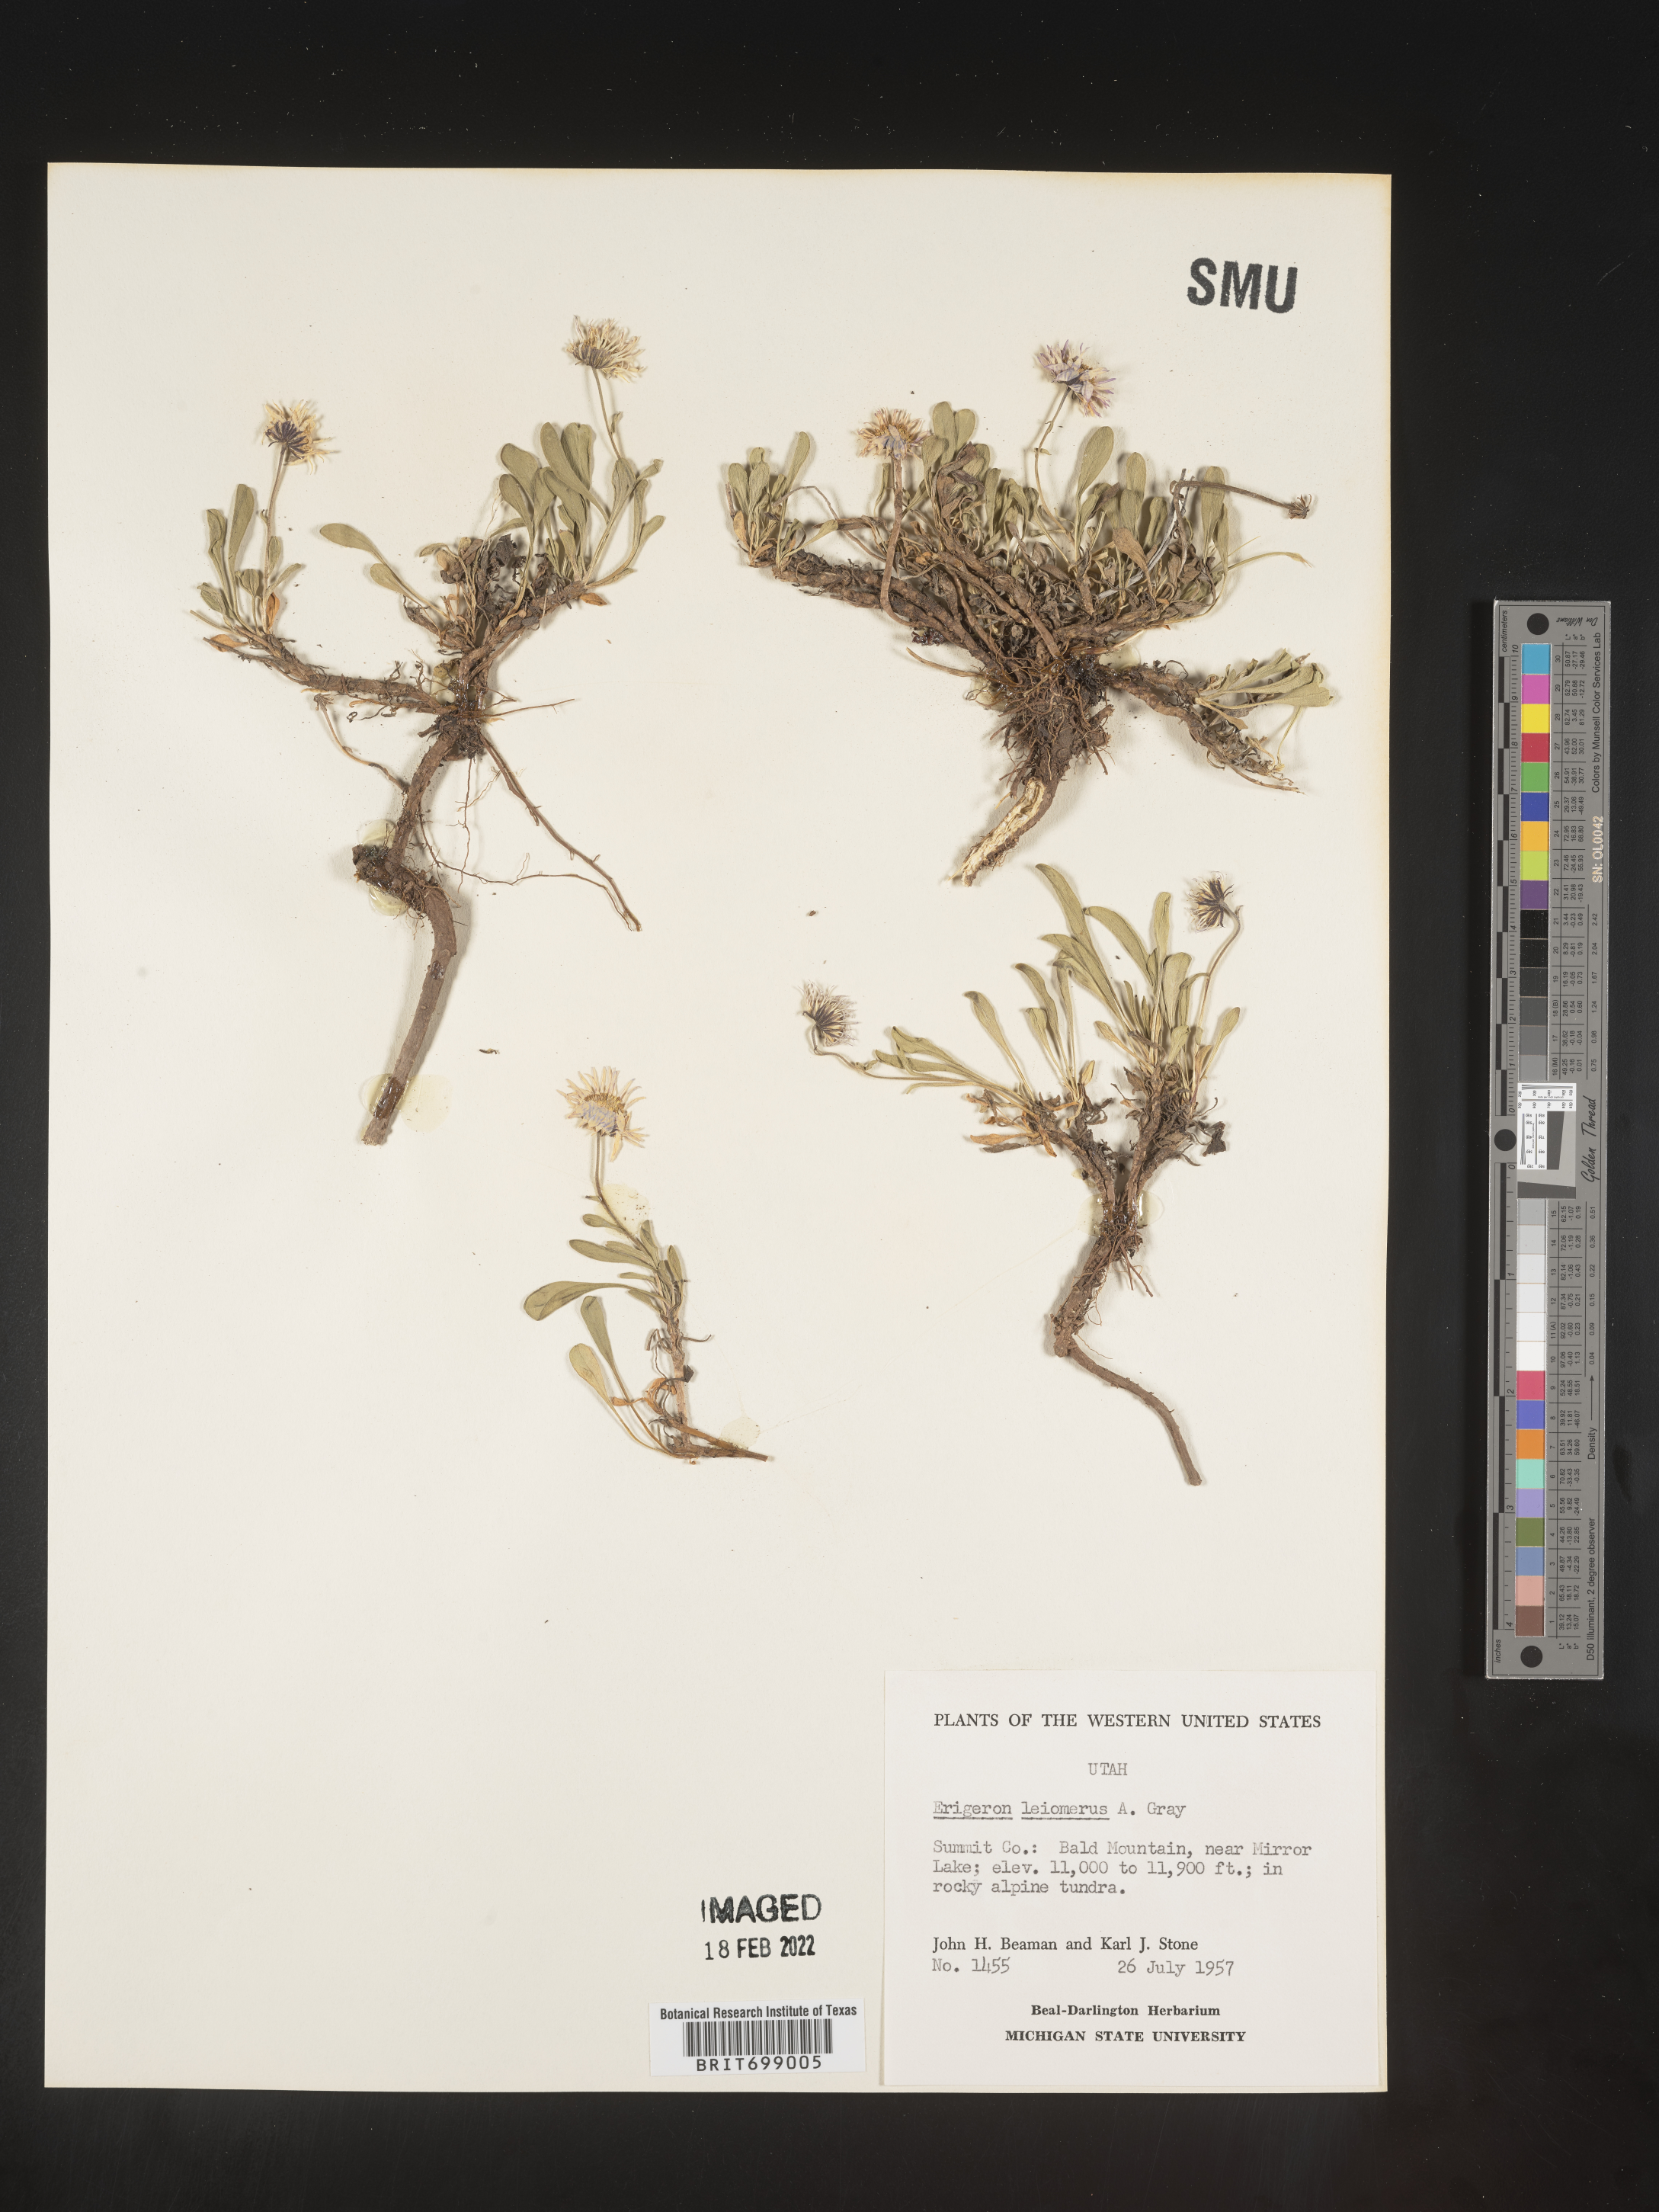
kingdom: Plantae
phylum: Tracheophyta
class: Magnoliopsida
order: Asterales
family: Asteraceae
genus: Erigeron
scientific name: Erigeron leiomerus
